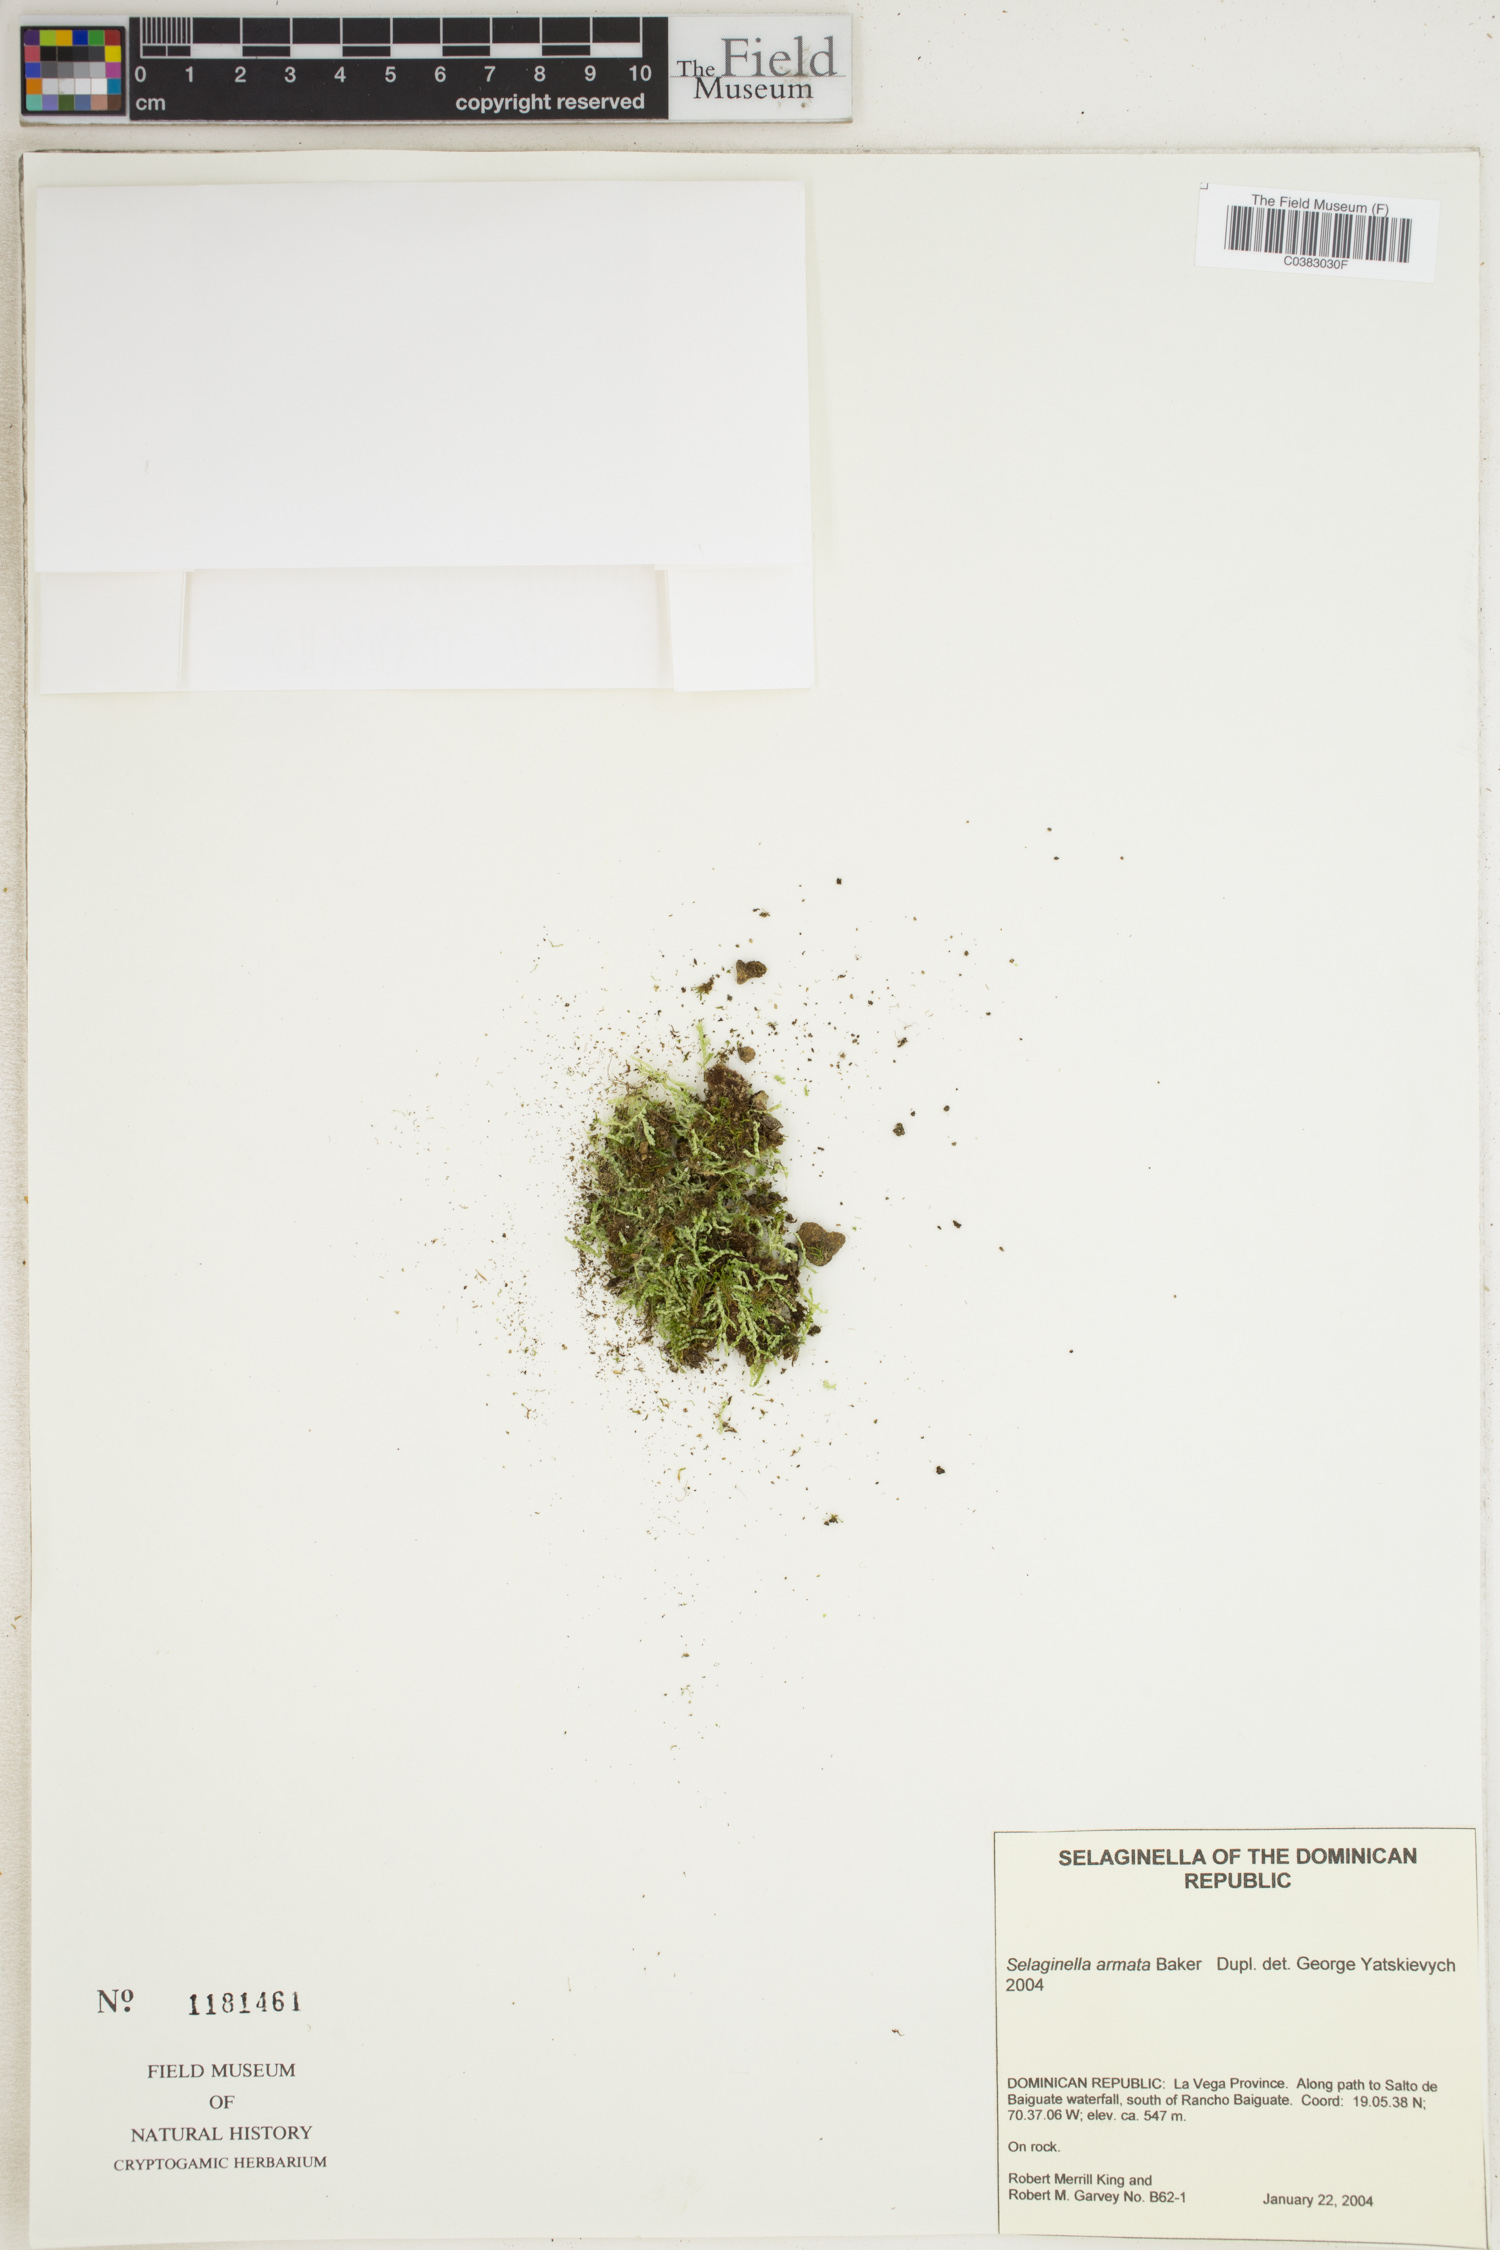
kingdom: Plantae
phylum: Tracheophyta
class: Lycopodiopsida
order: Selaginellales
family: Selaginellaceae
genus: Selaginella
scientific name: Selaginella armata
